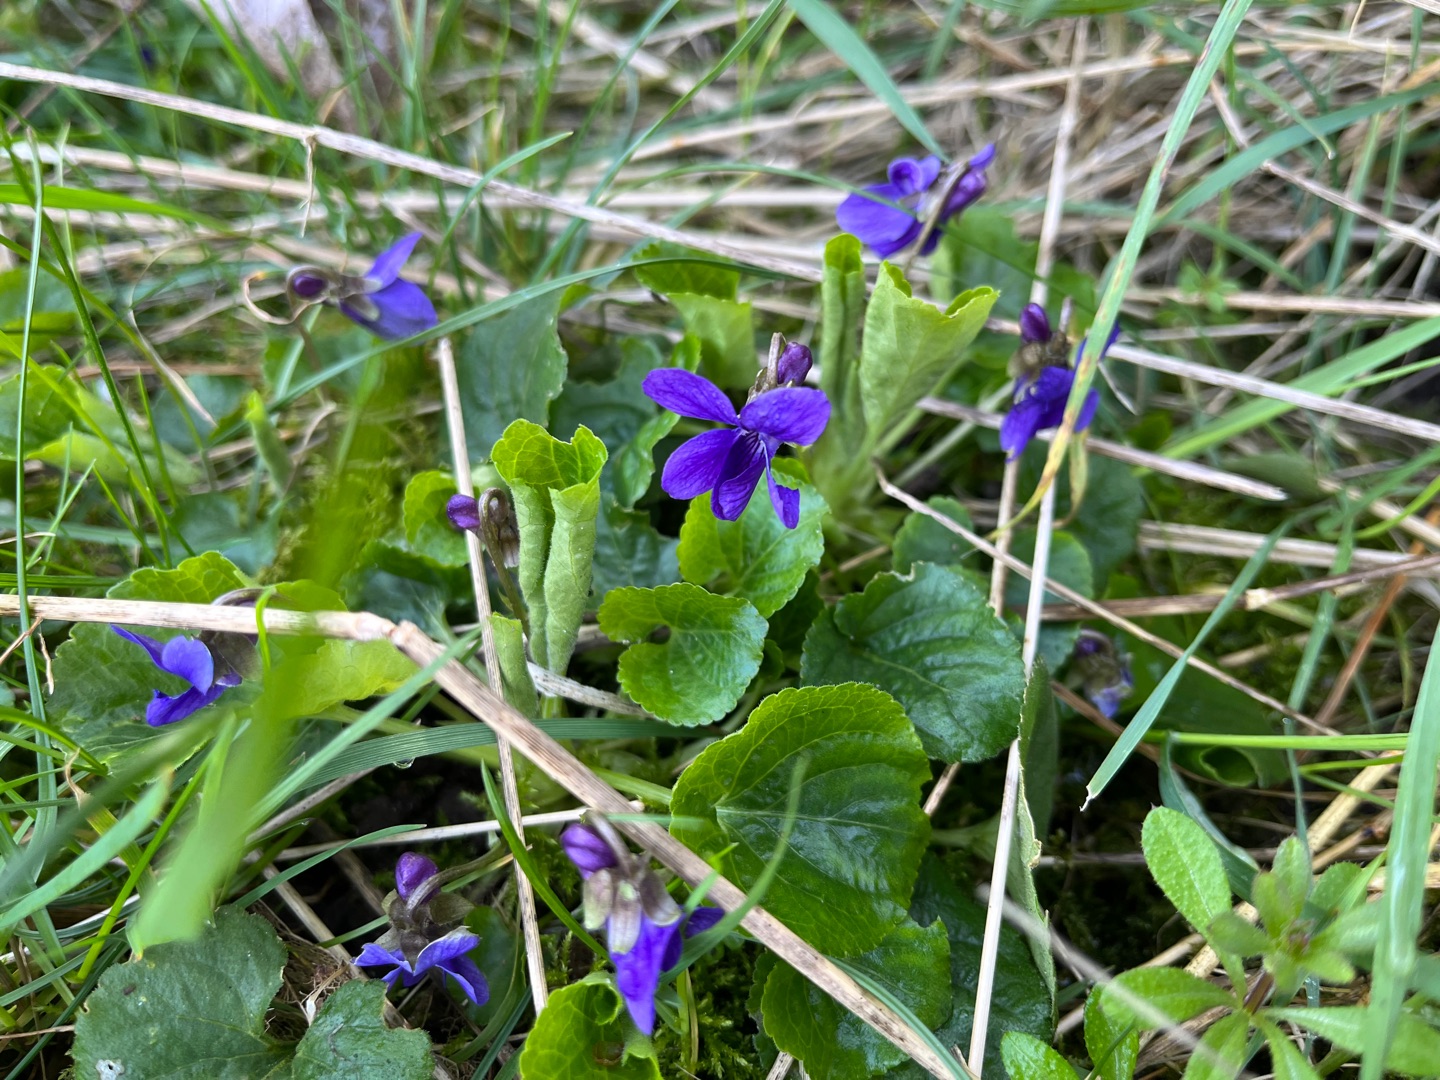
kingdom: Plantae
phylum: Tracheophyta
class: Magnoliopsida
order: Malpighiales
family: Violaceae
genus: Viola
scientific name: Viola odorata
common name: Marts-viol
